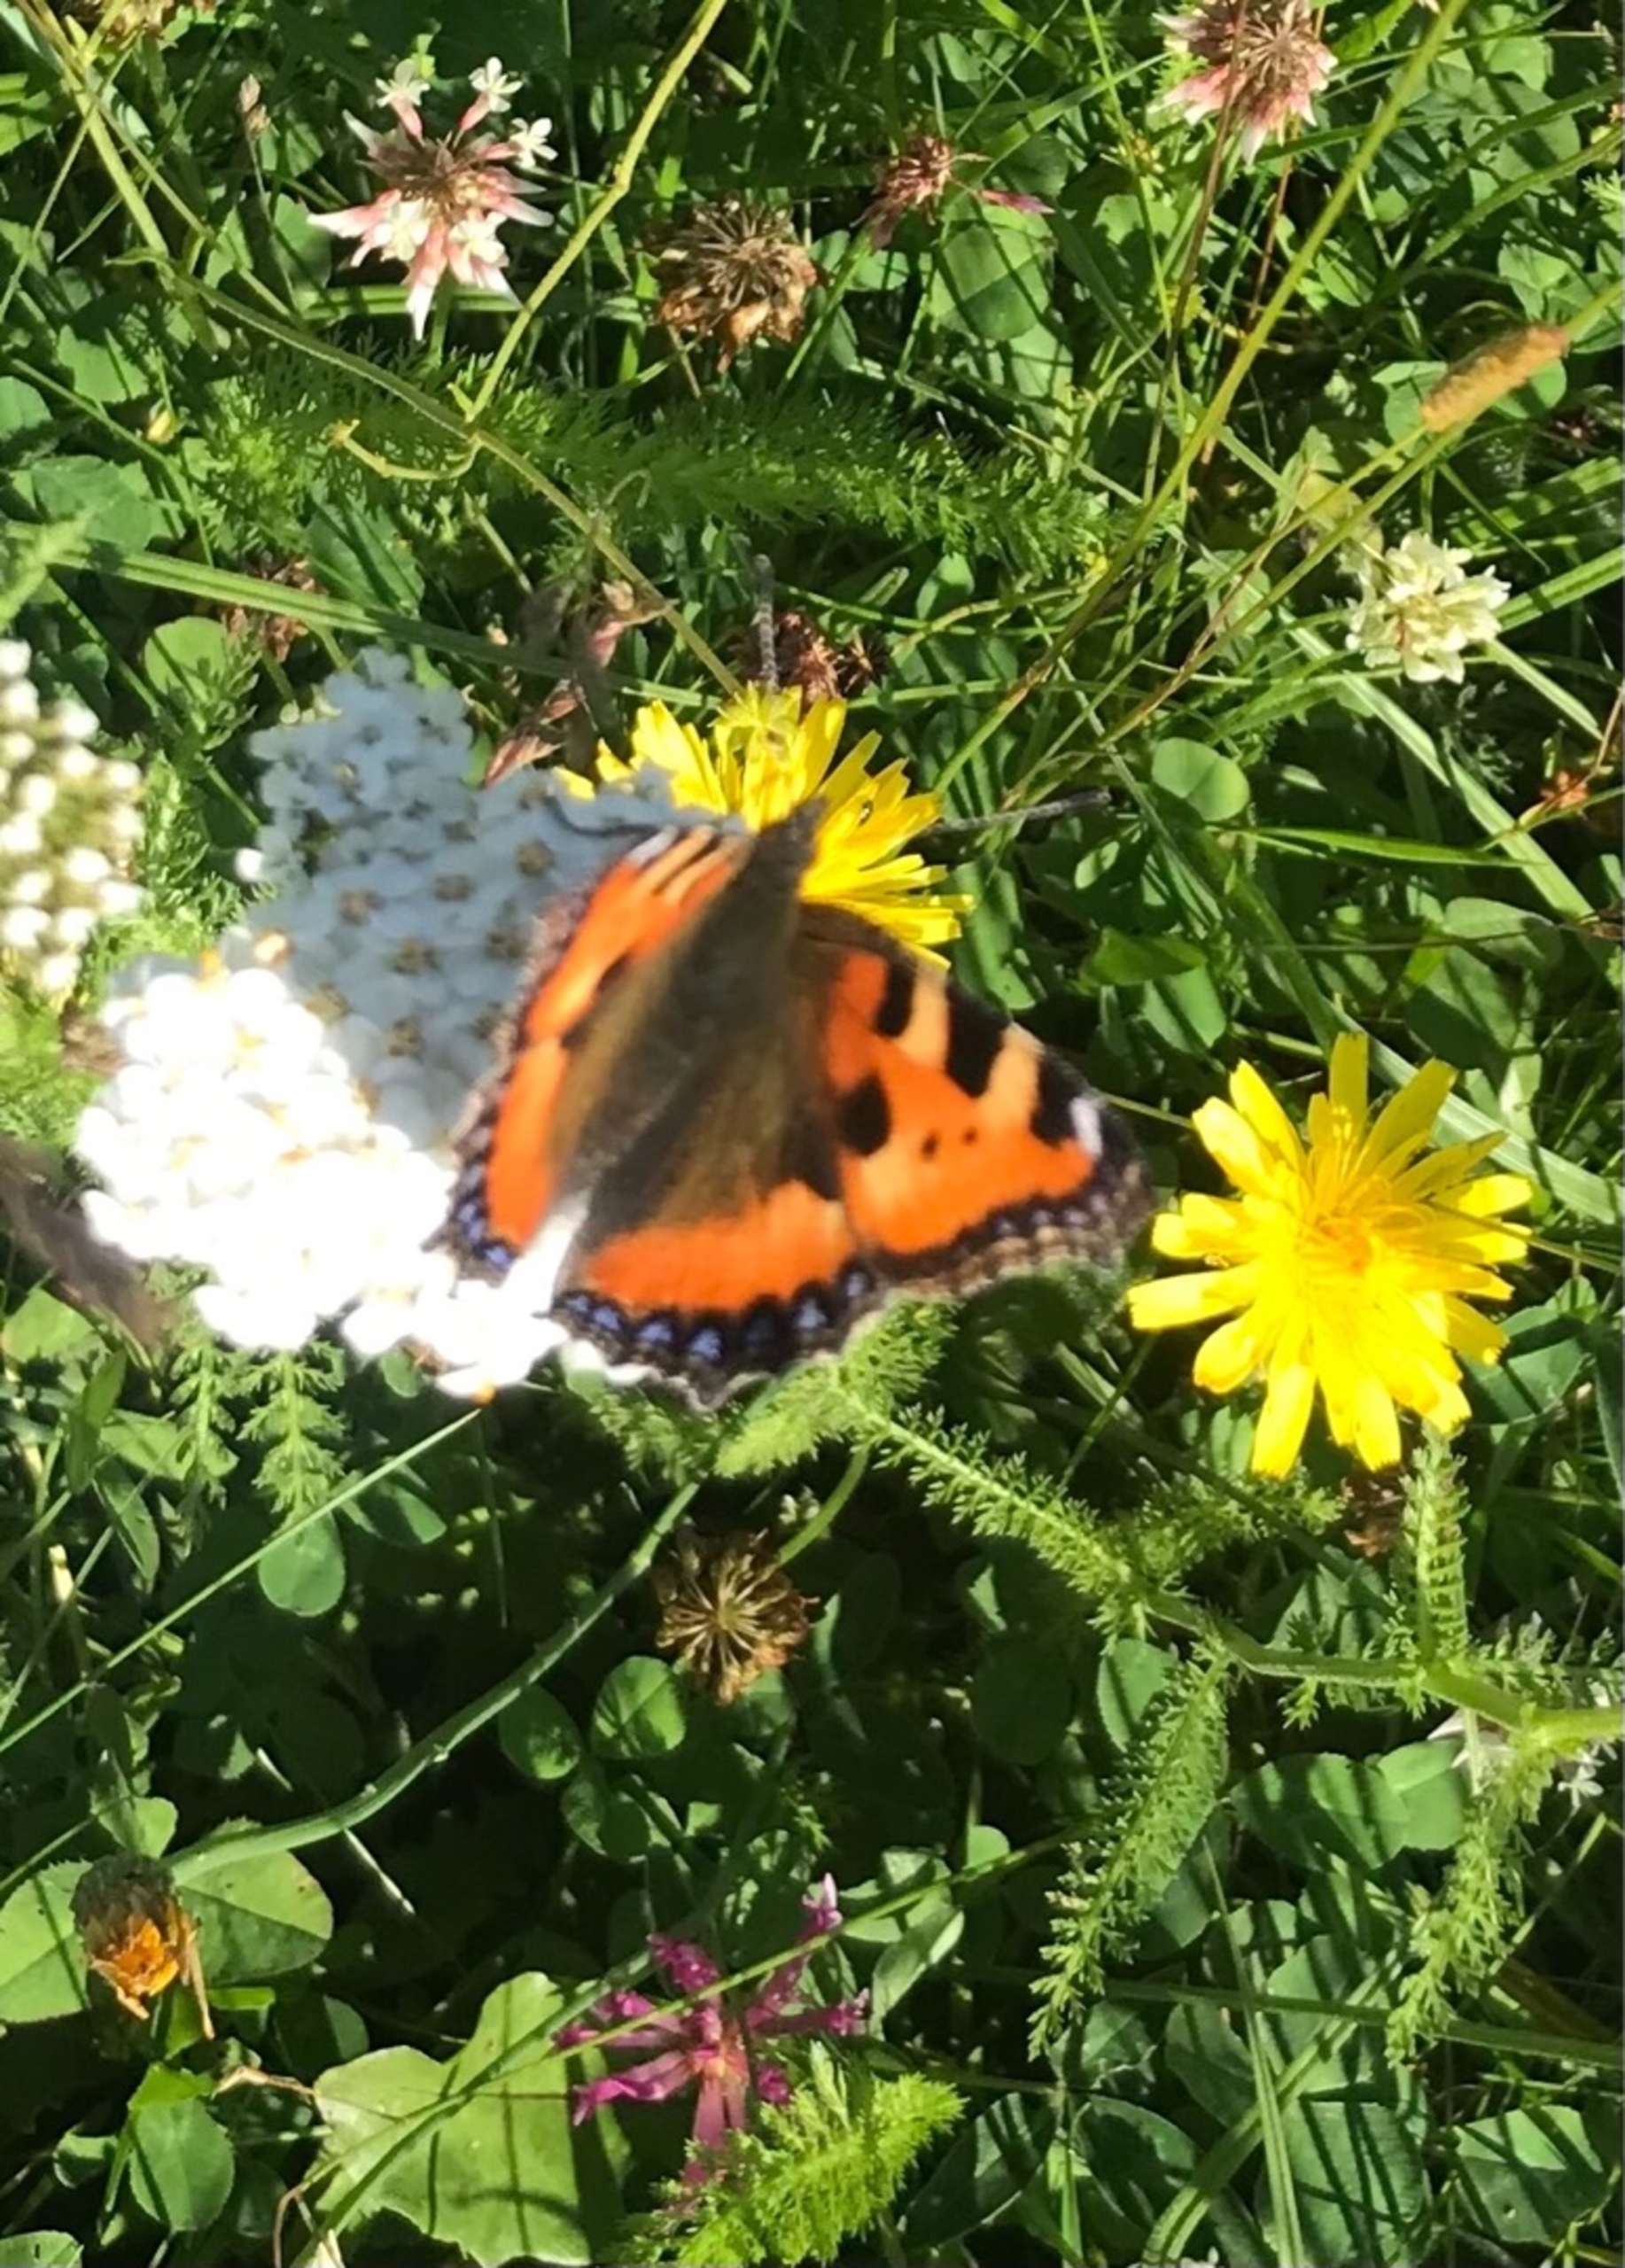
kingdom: Animalia
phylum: Arthropoda
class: Insecta
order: Lepidoptera
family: Nymphalidae
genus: Aglais
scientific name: Aglais urticae
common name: Nældens takvinge
